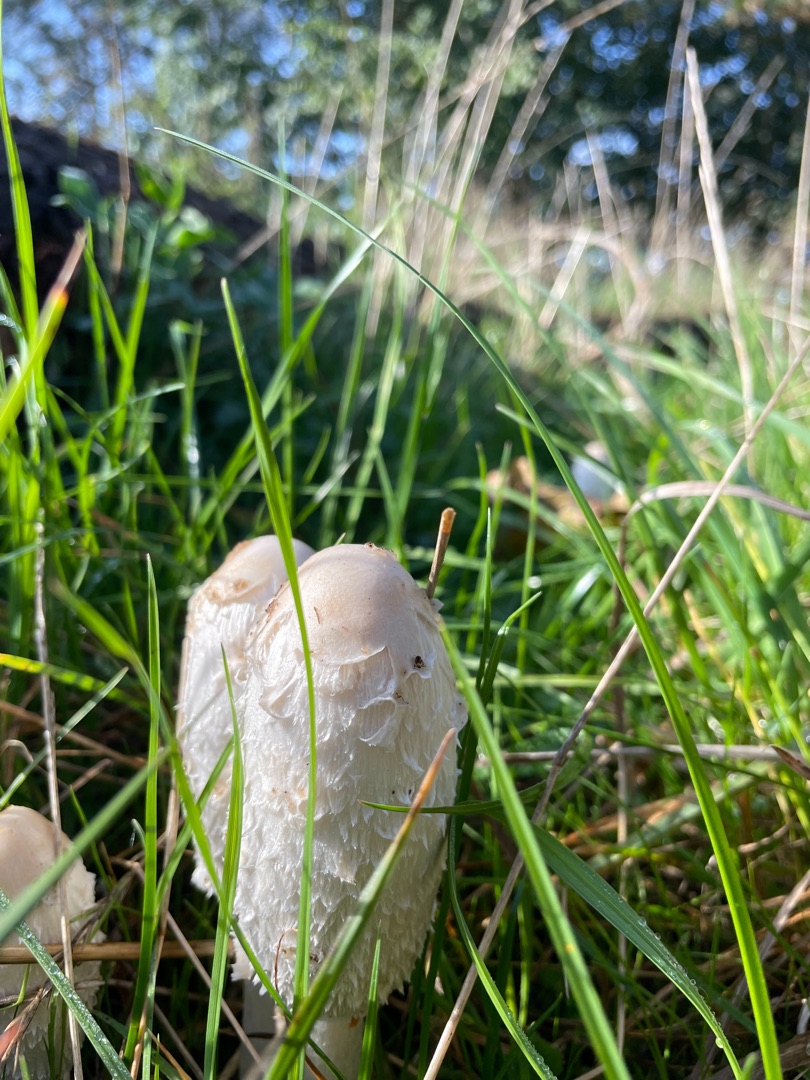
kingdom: Fungi
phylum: Basidiomycota
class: Agaricomycetes
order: Agaricales
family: Agaricaceae
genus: Coprinus
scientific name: Coprinus comatus
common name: Stor parykhat
